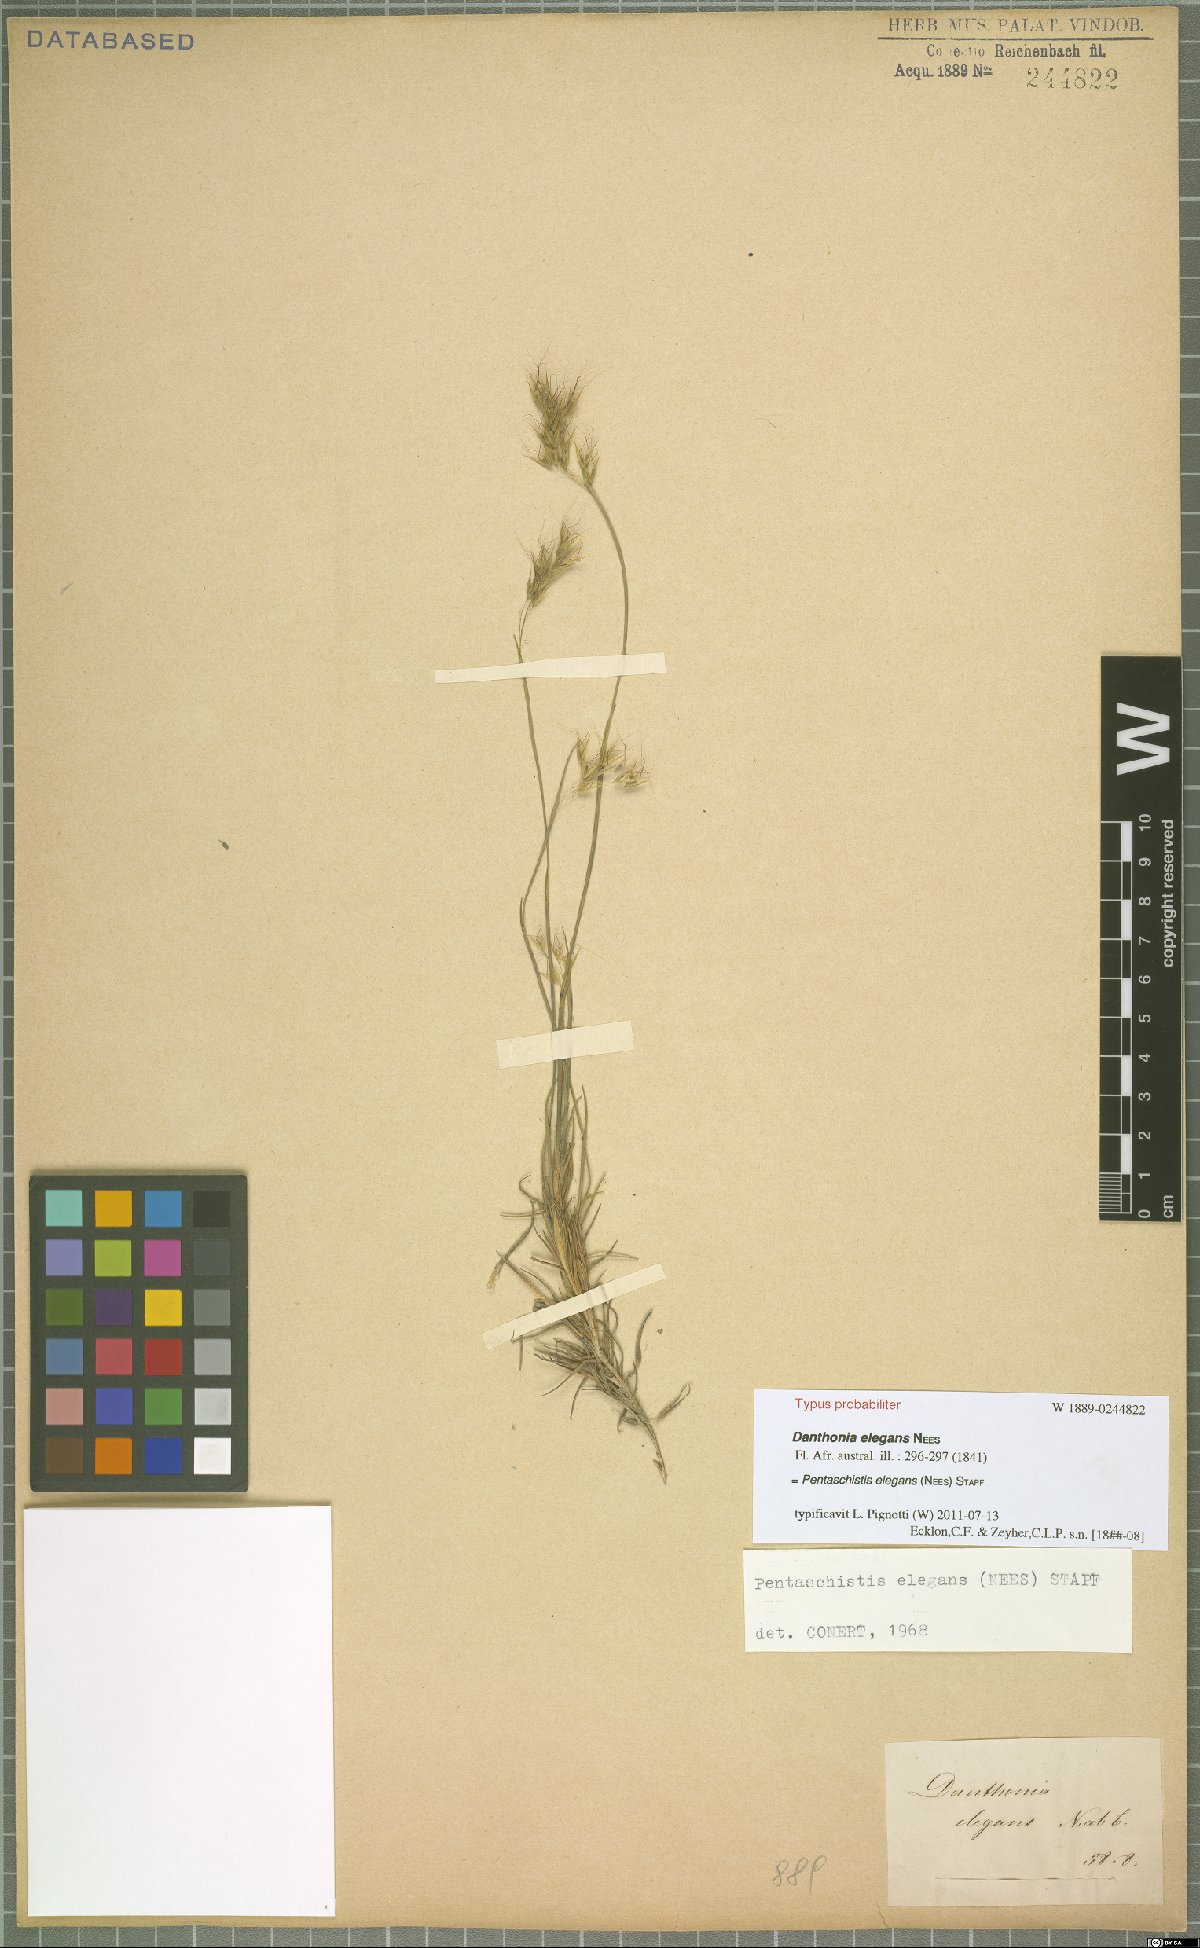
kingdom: Plantae
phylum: Tracheophyta
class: Liliopsida
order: Poales
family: Poaceae
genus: Pentameris
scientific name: Pentameris elegans
